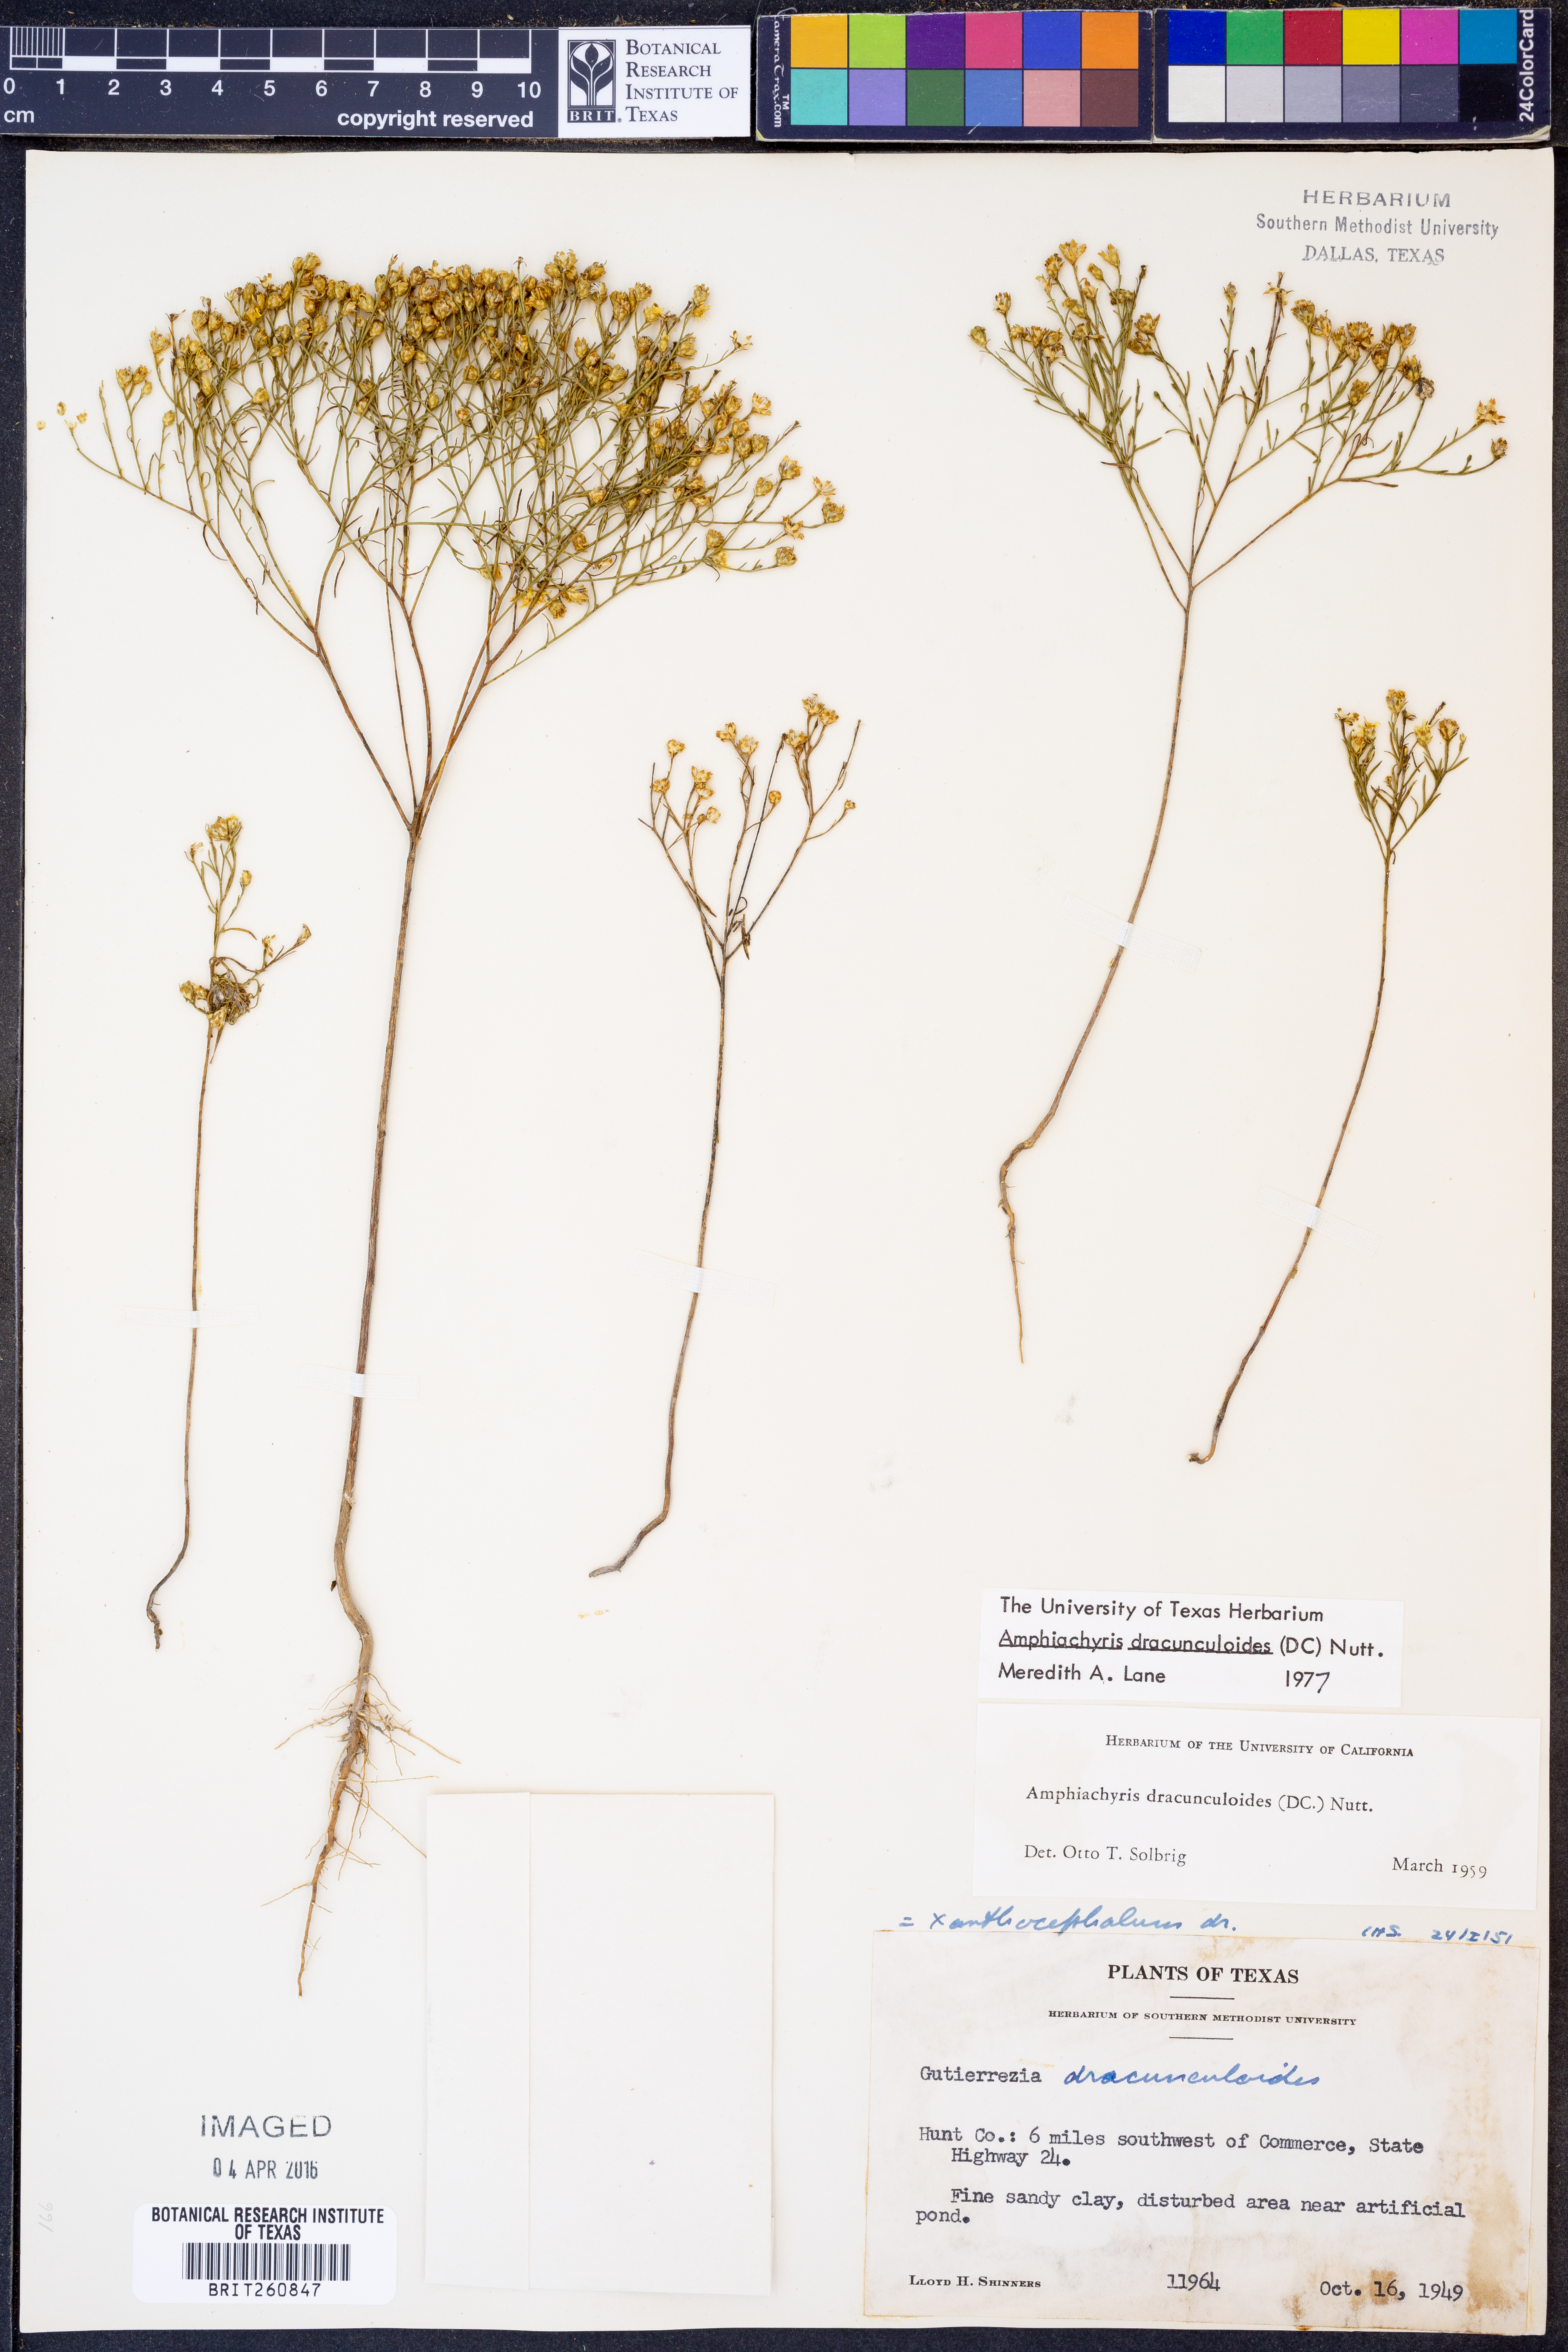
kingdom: Plantae
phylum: Tracheophyta
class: Magnoliopsida
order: Asterales
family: Asteraceae
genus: Amphiachyris
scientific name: Amphiachyris dracunculoides
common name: Broomweed
